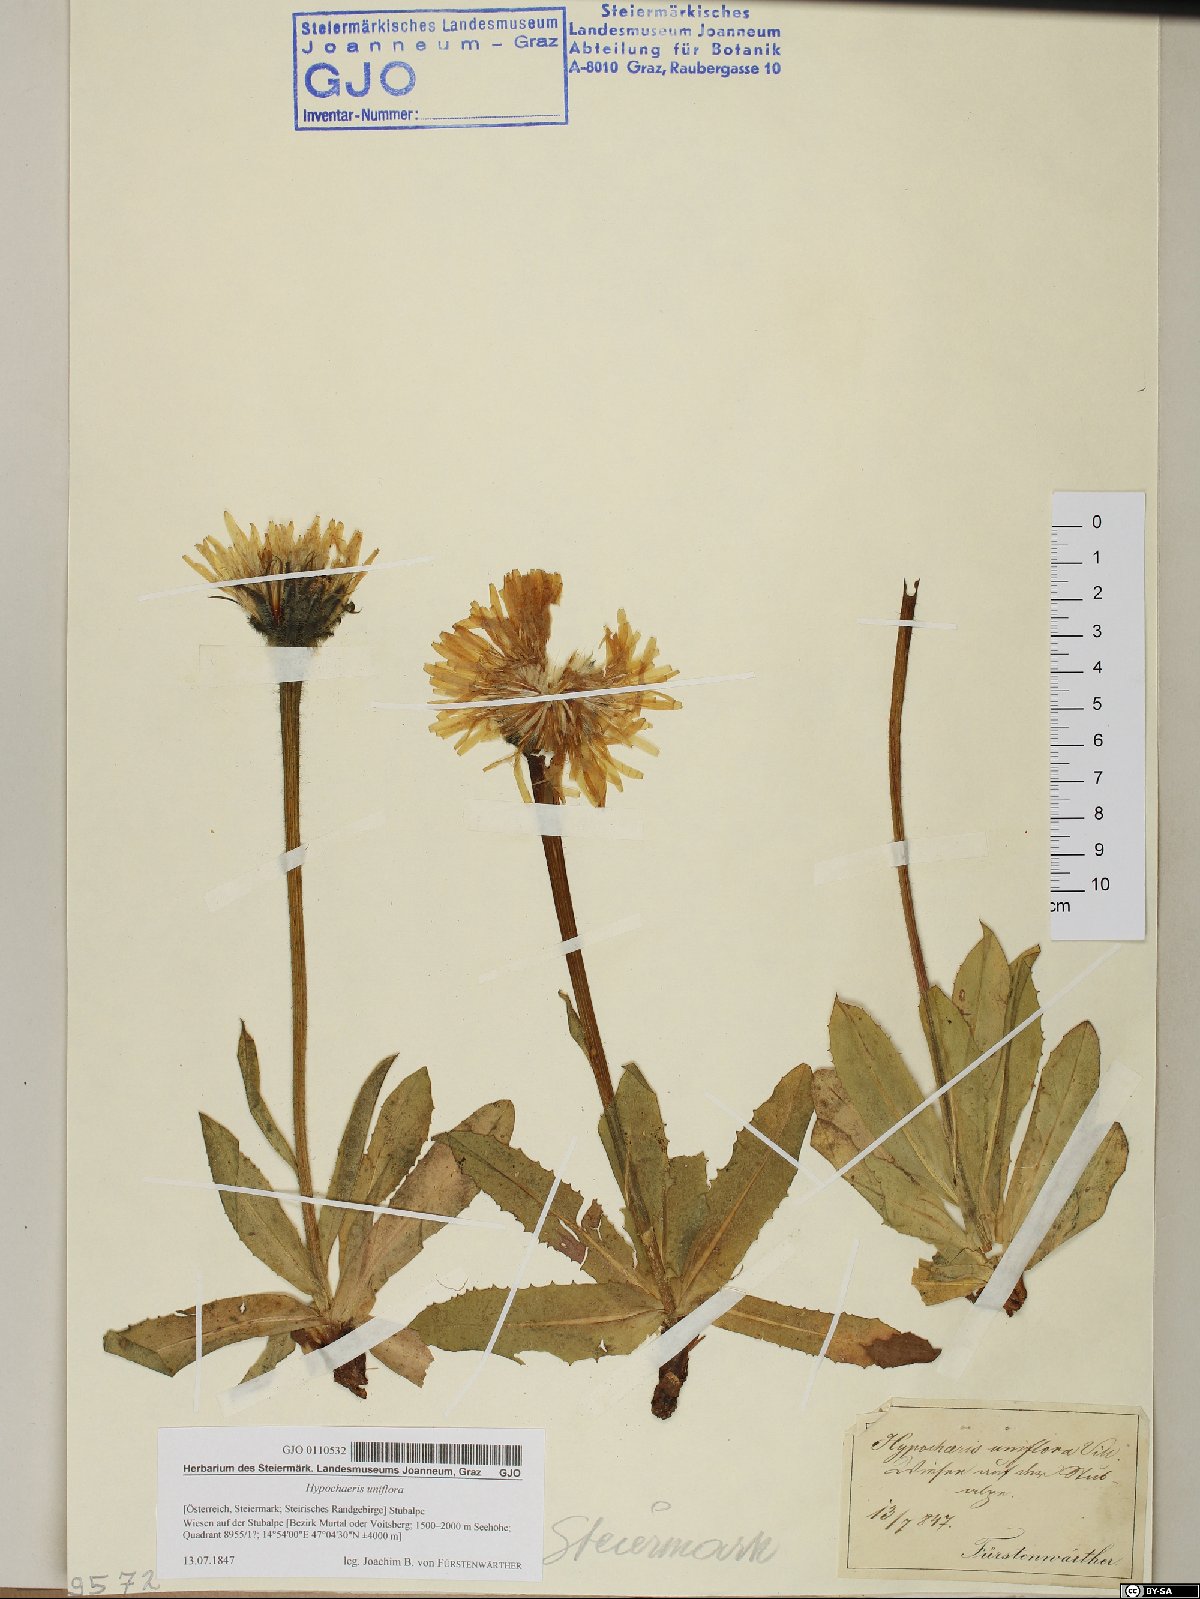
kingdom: Plantae
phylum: Tracheophyta
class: Magnoliopsida
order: Asterales
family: Asteraceae
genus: Trommsdorffia
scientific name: Trommsdorffia uniflora
